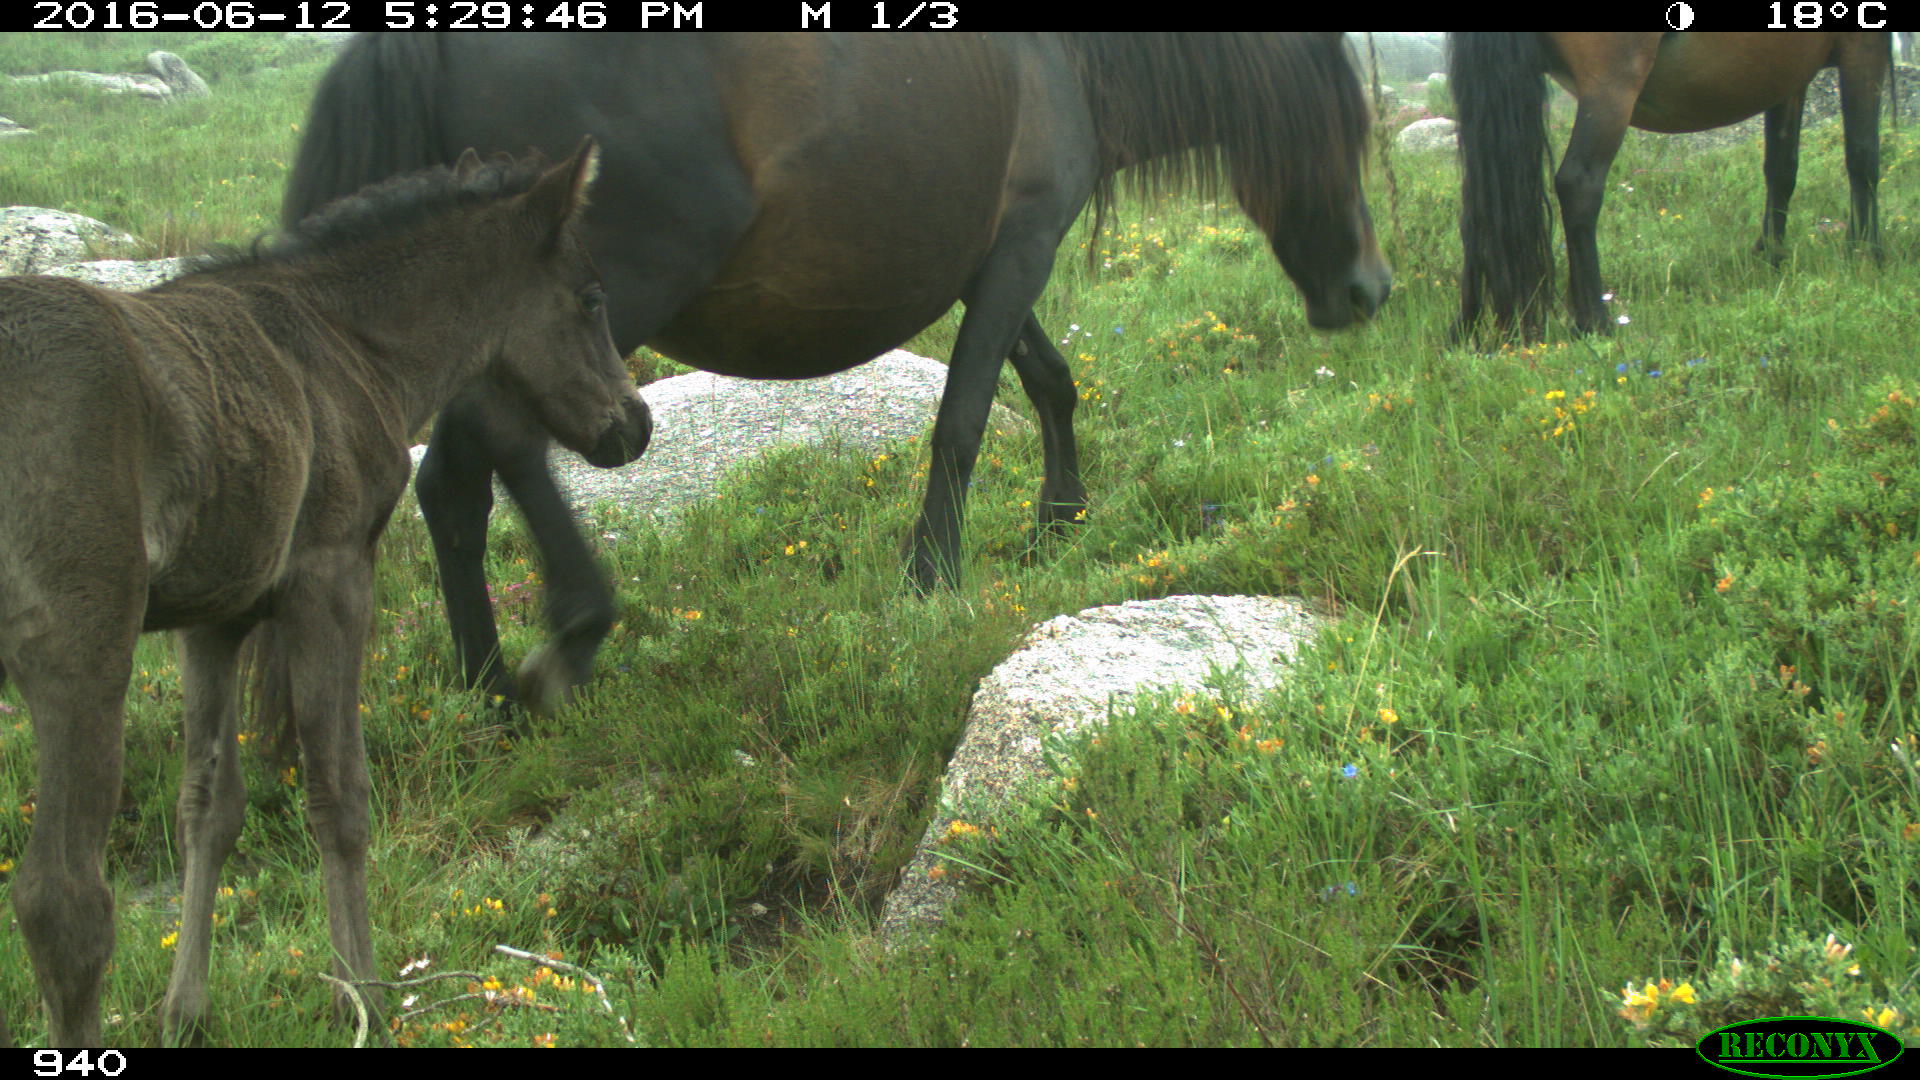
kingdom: Animalia
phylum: Chordata
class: Mammalia
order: Perissodactyla
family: Equidae
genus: Equus
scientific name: Equus caballus
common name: Horse
